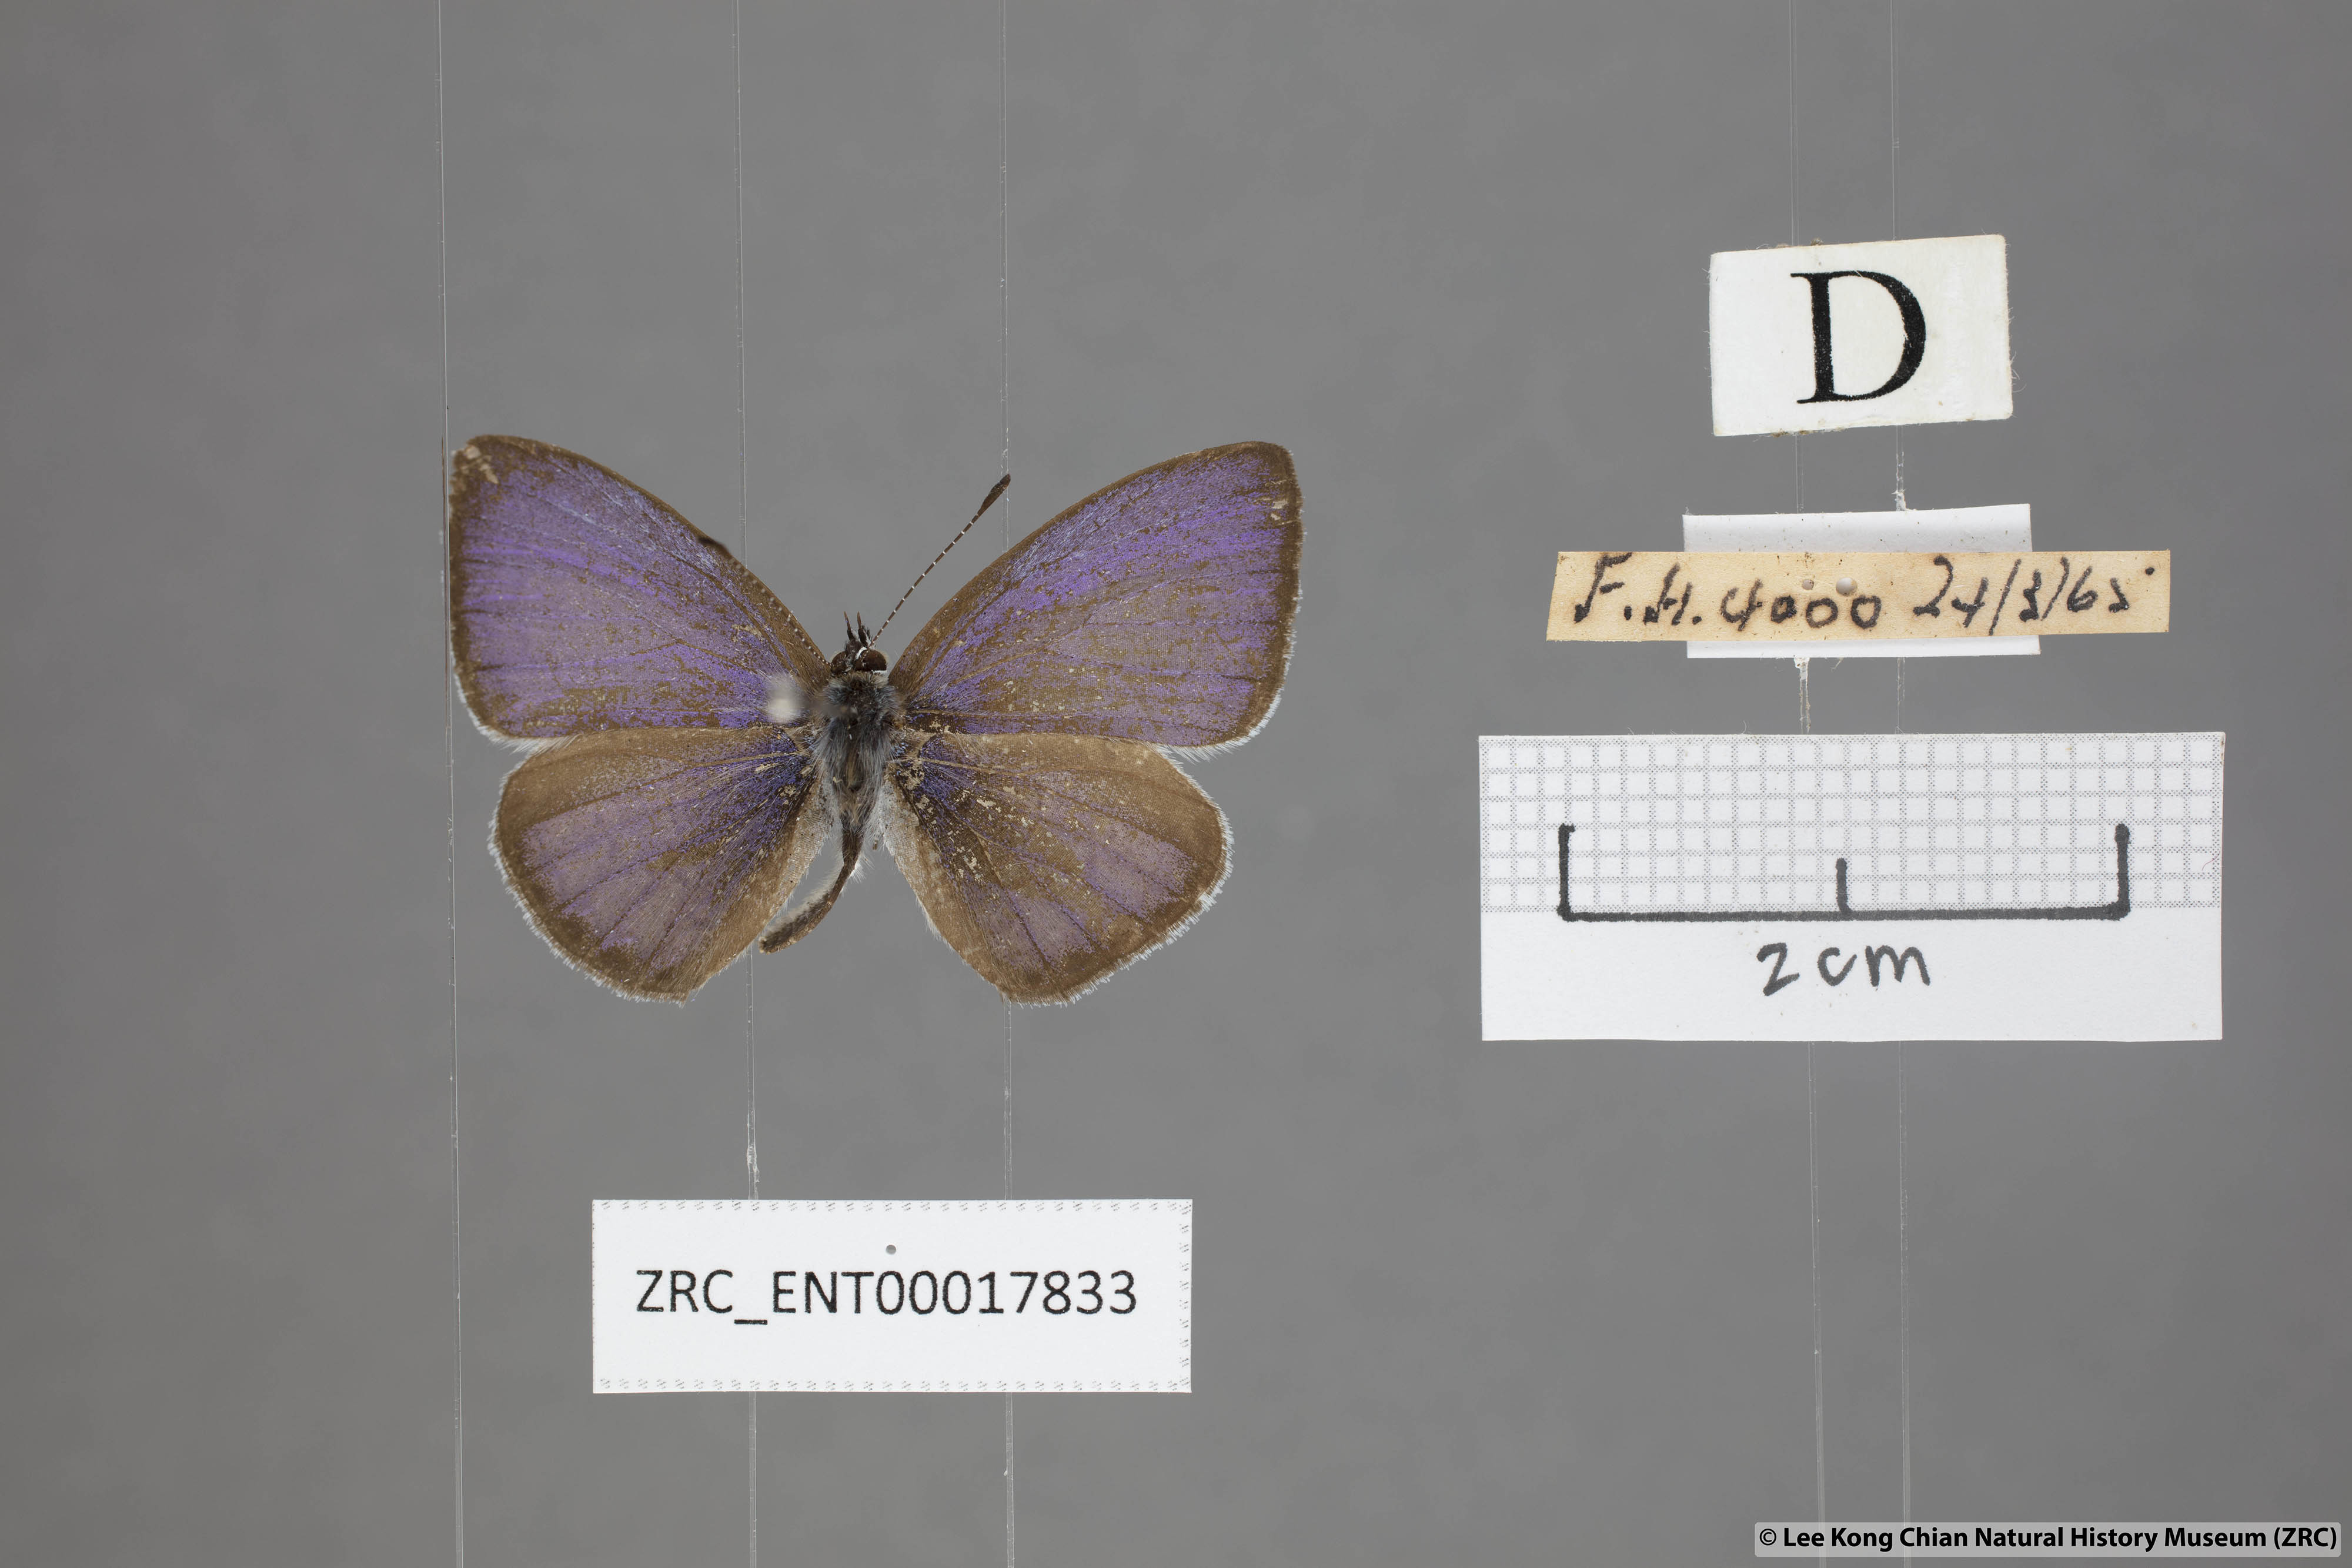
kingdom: Animalia
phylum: Arthropoda
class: Insecta
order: Lepidoptera
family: Lycaenidae
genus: Udara
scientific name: Udara
